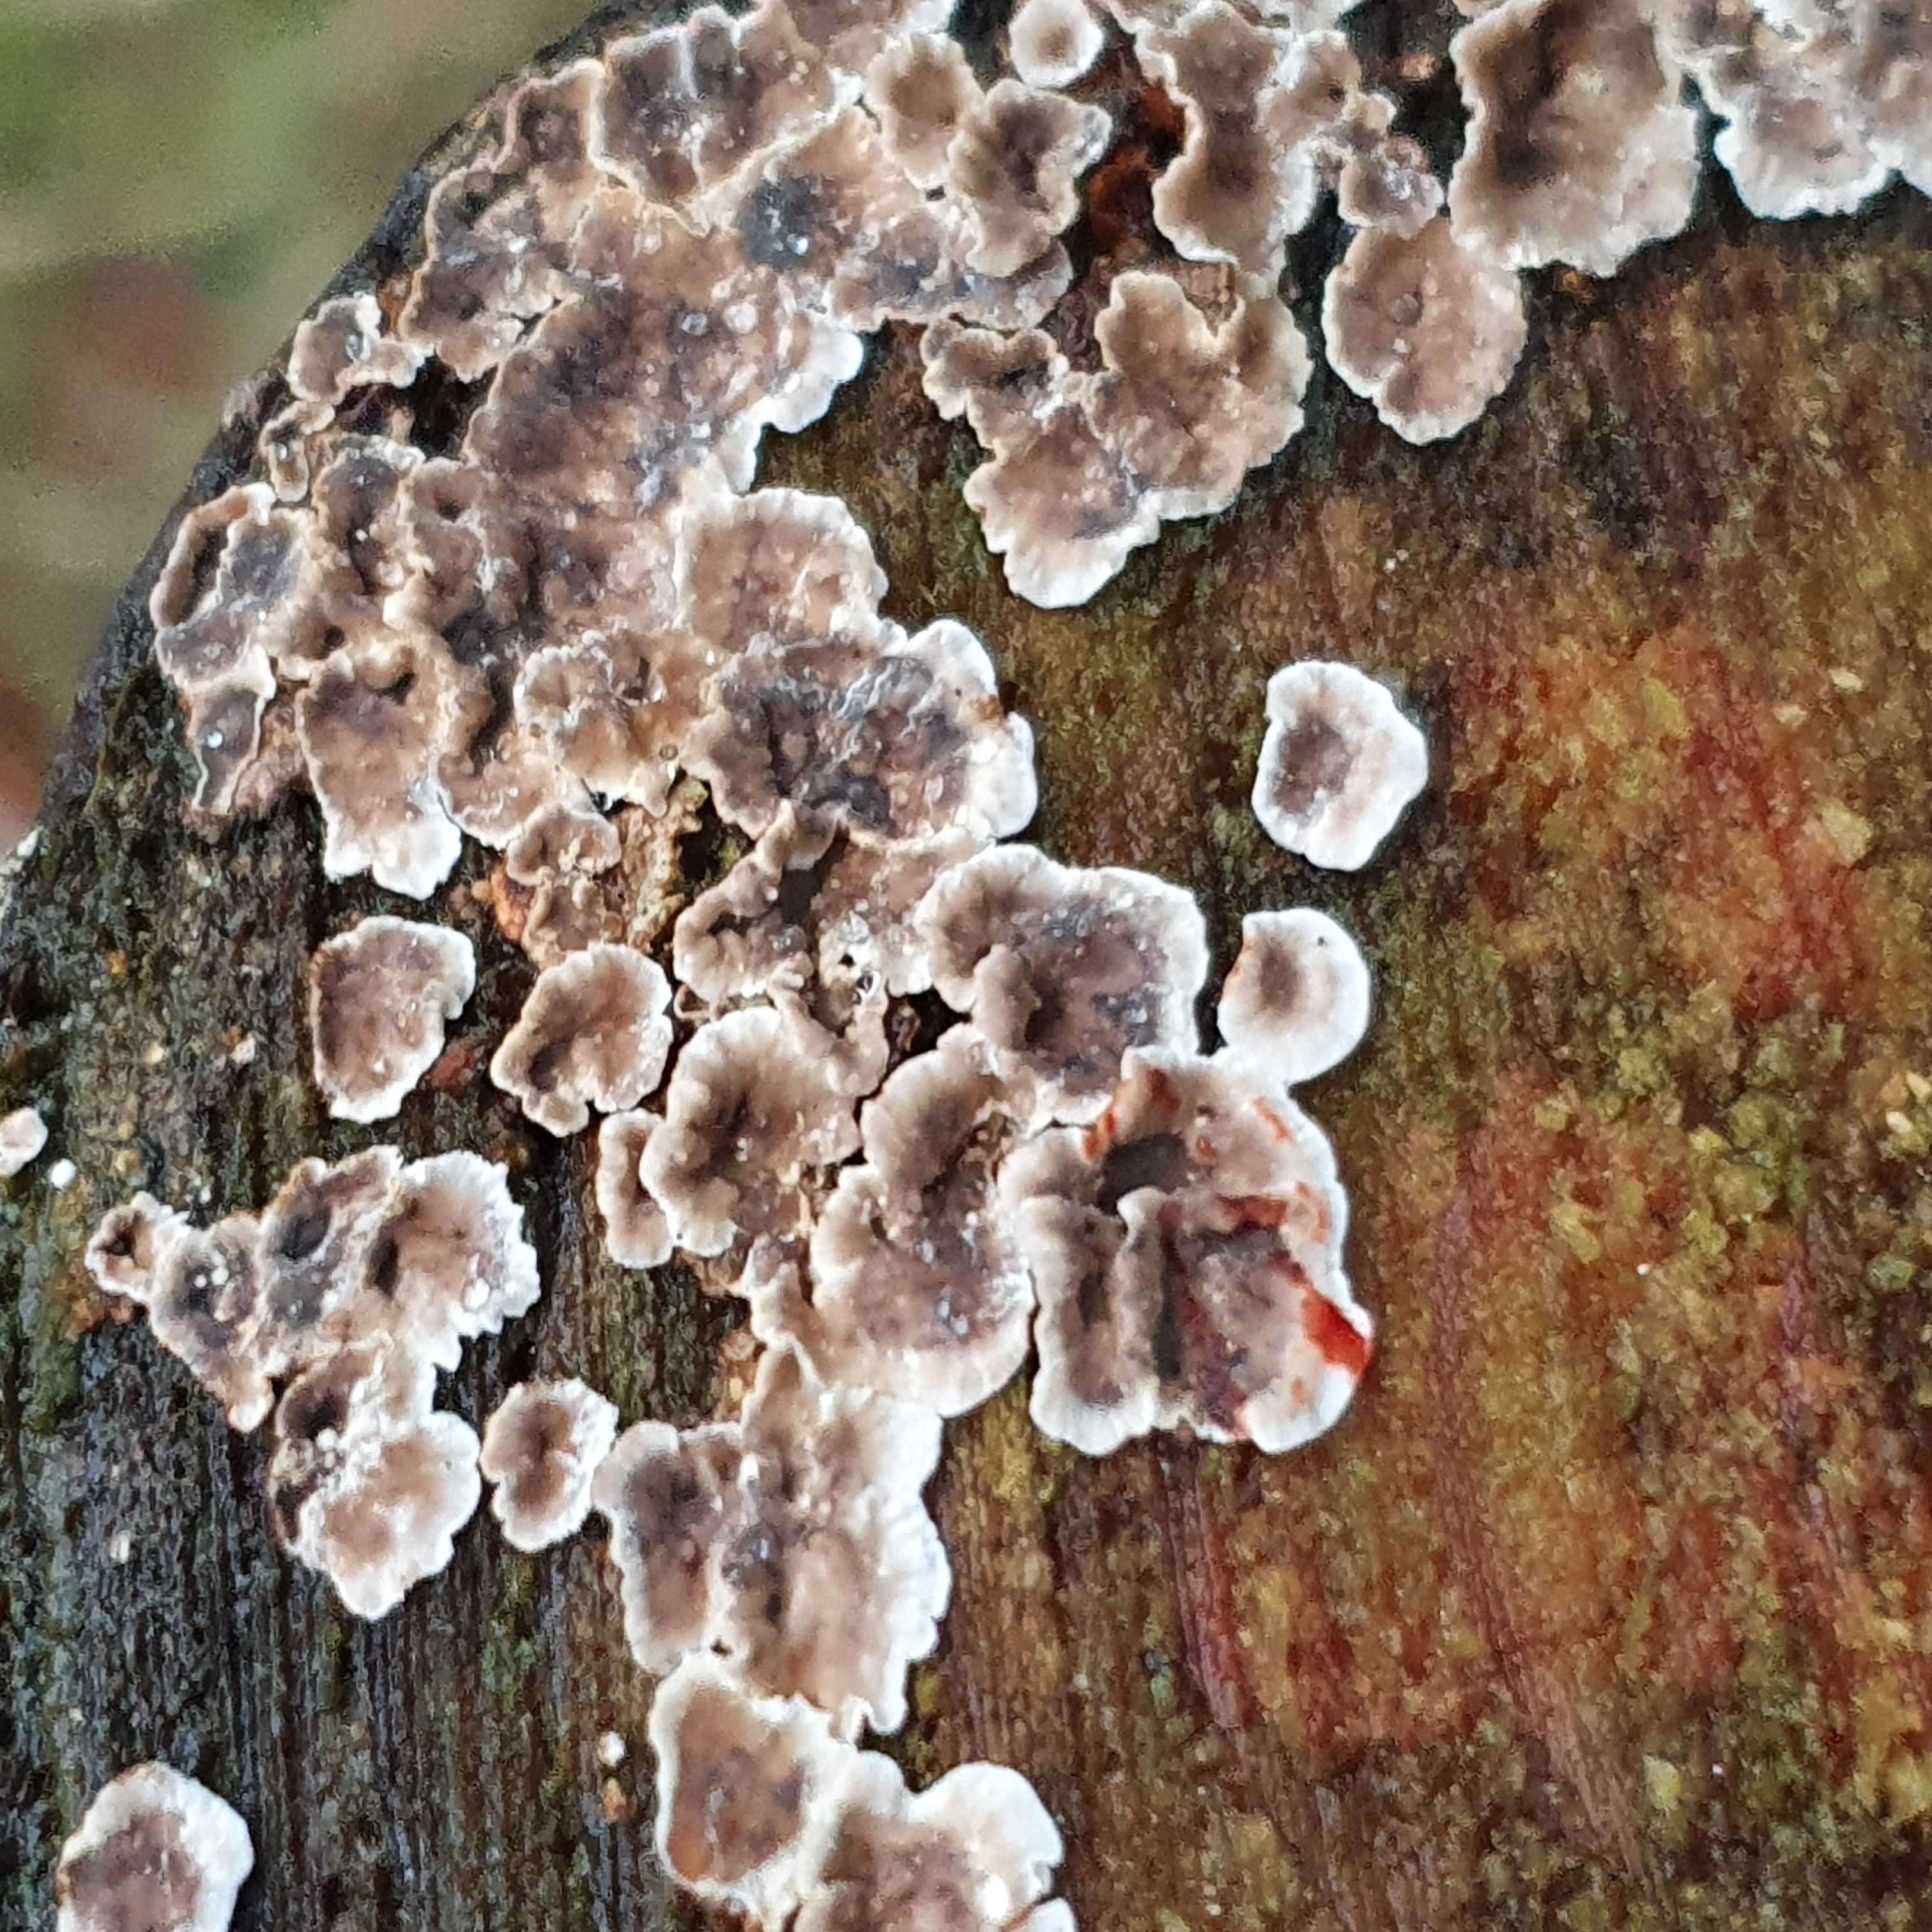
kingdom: Fungi
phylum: Basidiomycota
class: Agaricomycetes
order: Russulales
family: Stereaceae
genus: Stereum
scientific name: Stereum sanguinolentum
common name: blødende lædersvamp
